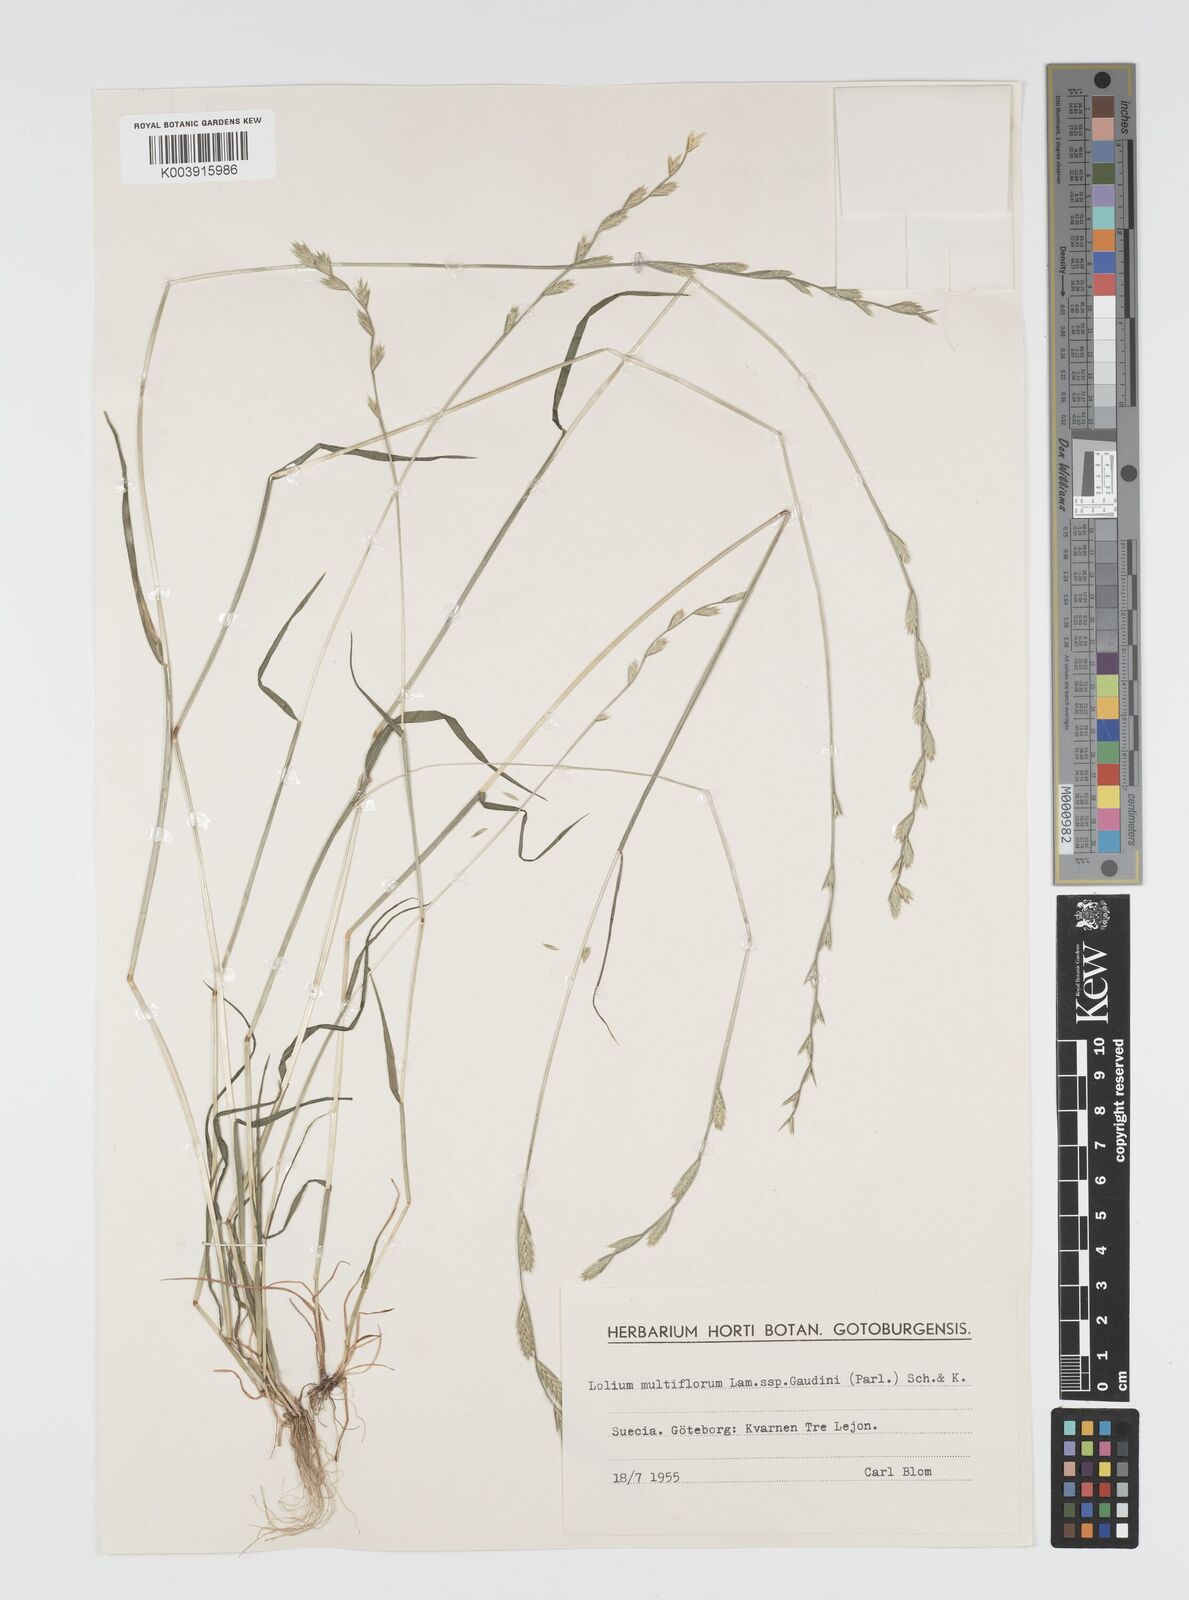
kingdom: Plantae
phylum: Tracheophyta
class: Liliopsida
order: Poales
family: Poaceae
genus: Lolium
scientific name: Lolium multiflorum
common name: Annual ryegrass
